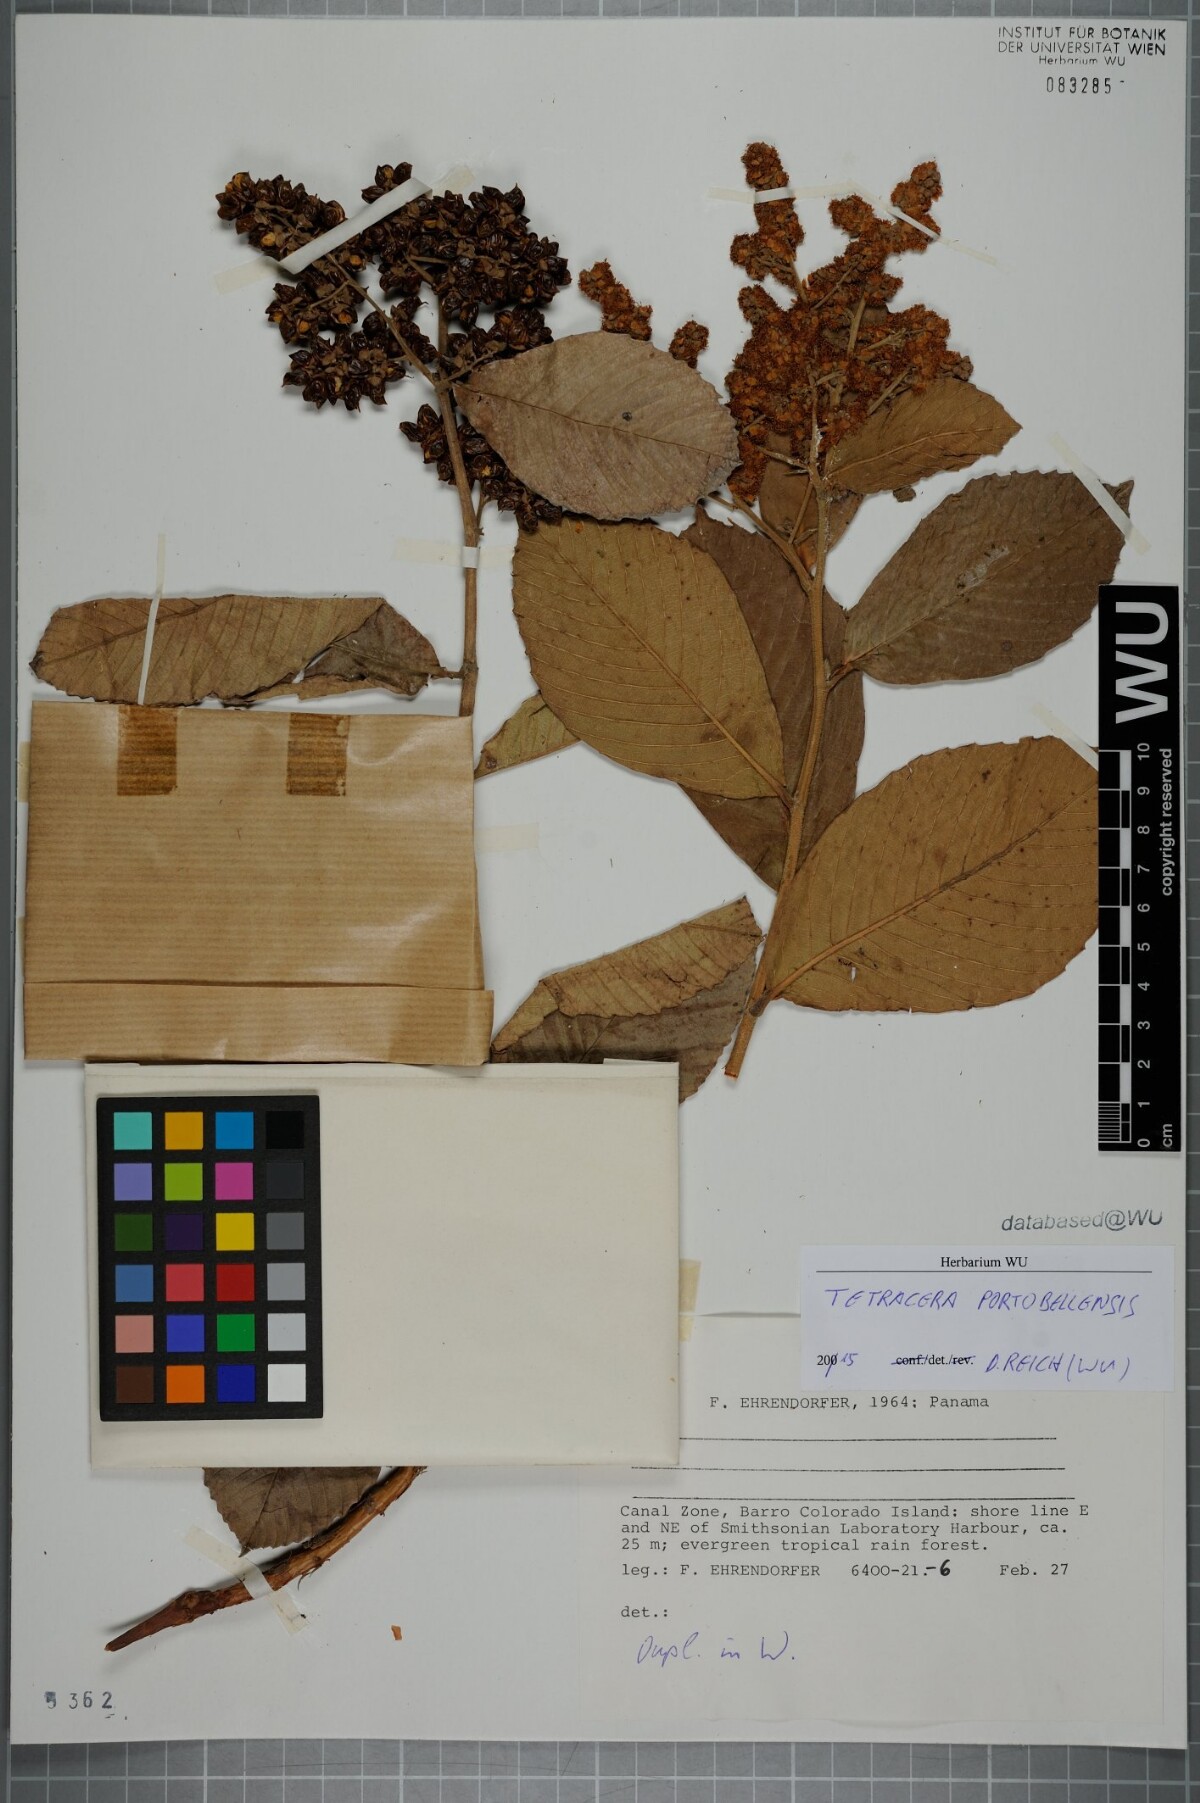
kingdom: Plantae
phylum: Tracheophyta
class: Magnoliopsida
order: Dilleniales
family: Dilleniaceae
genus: Tetracera
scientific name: Tetracera portobellensis
